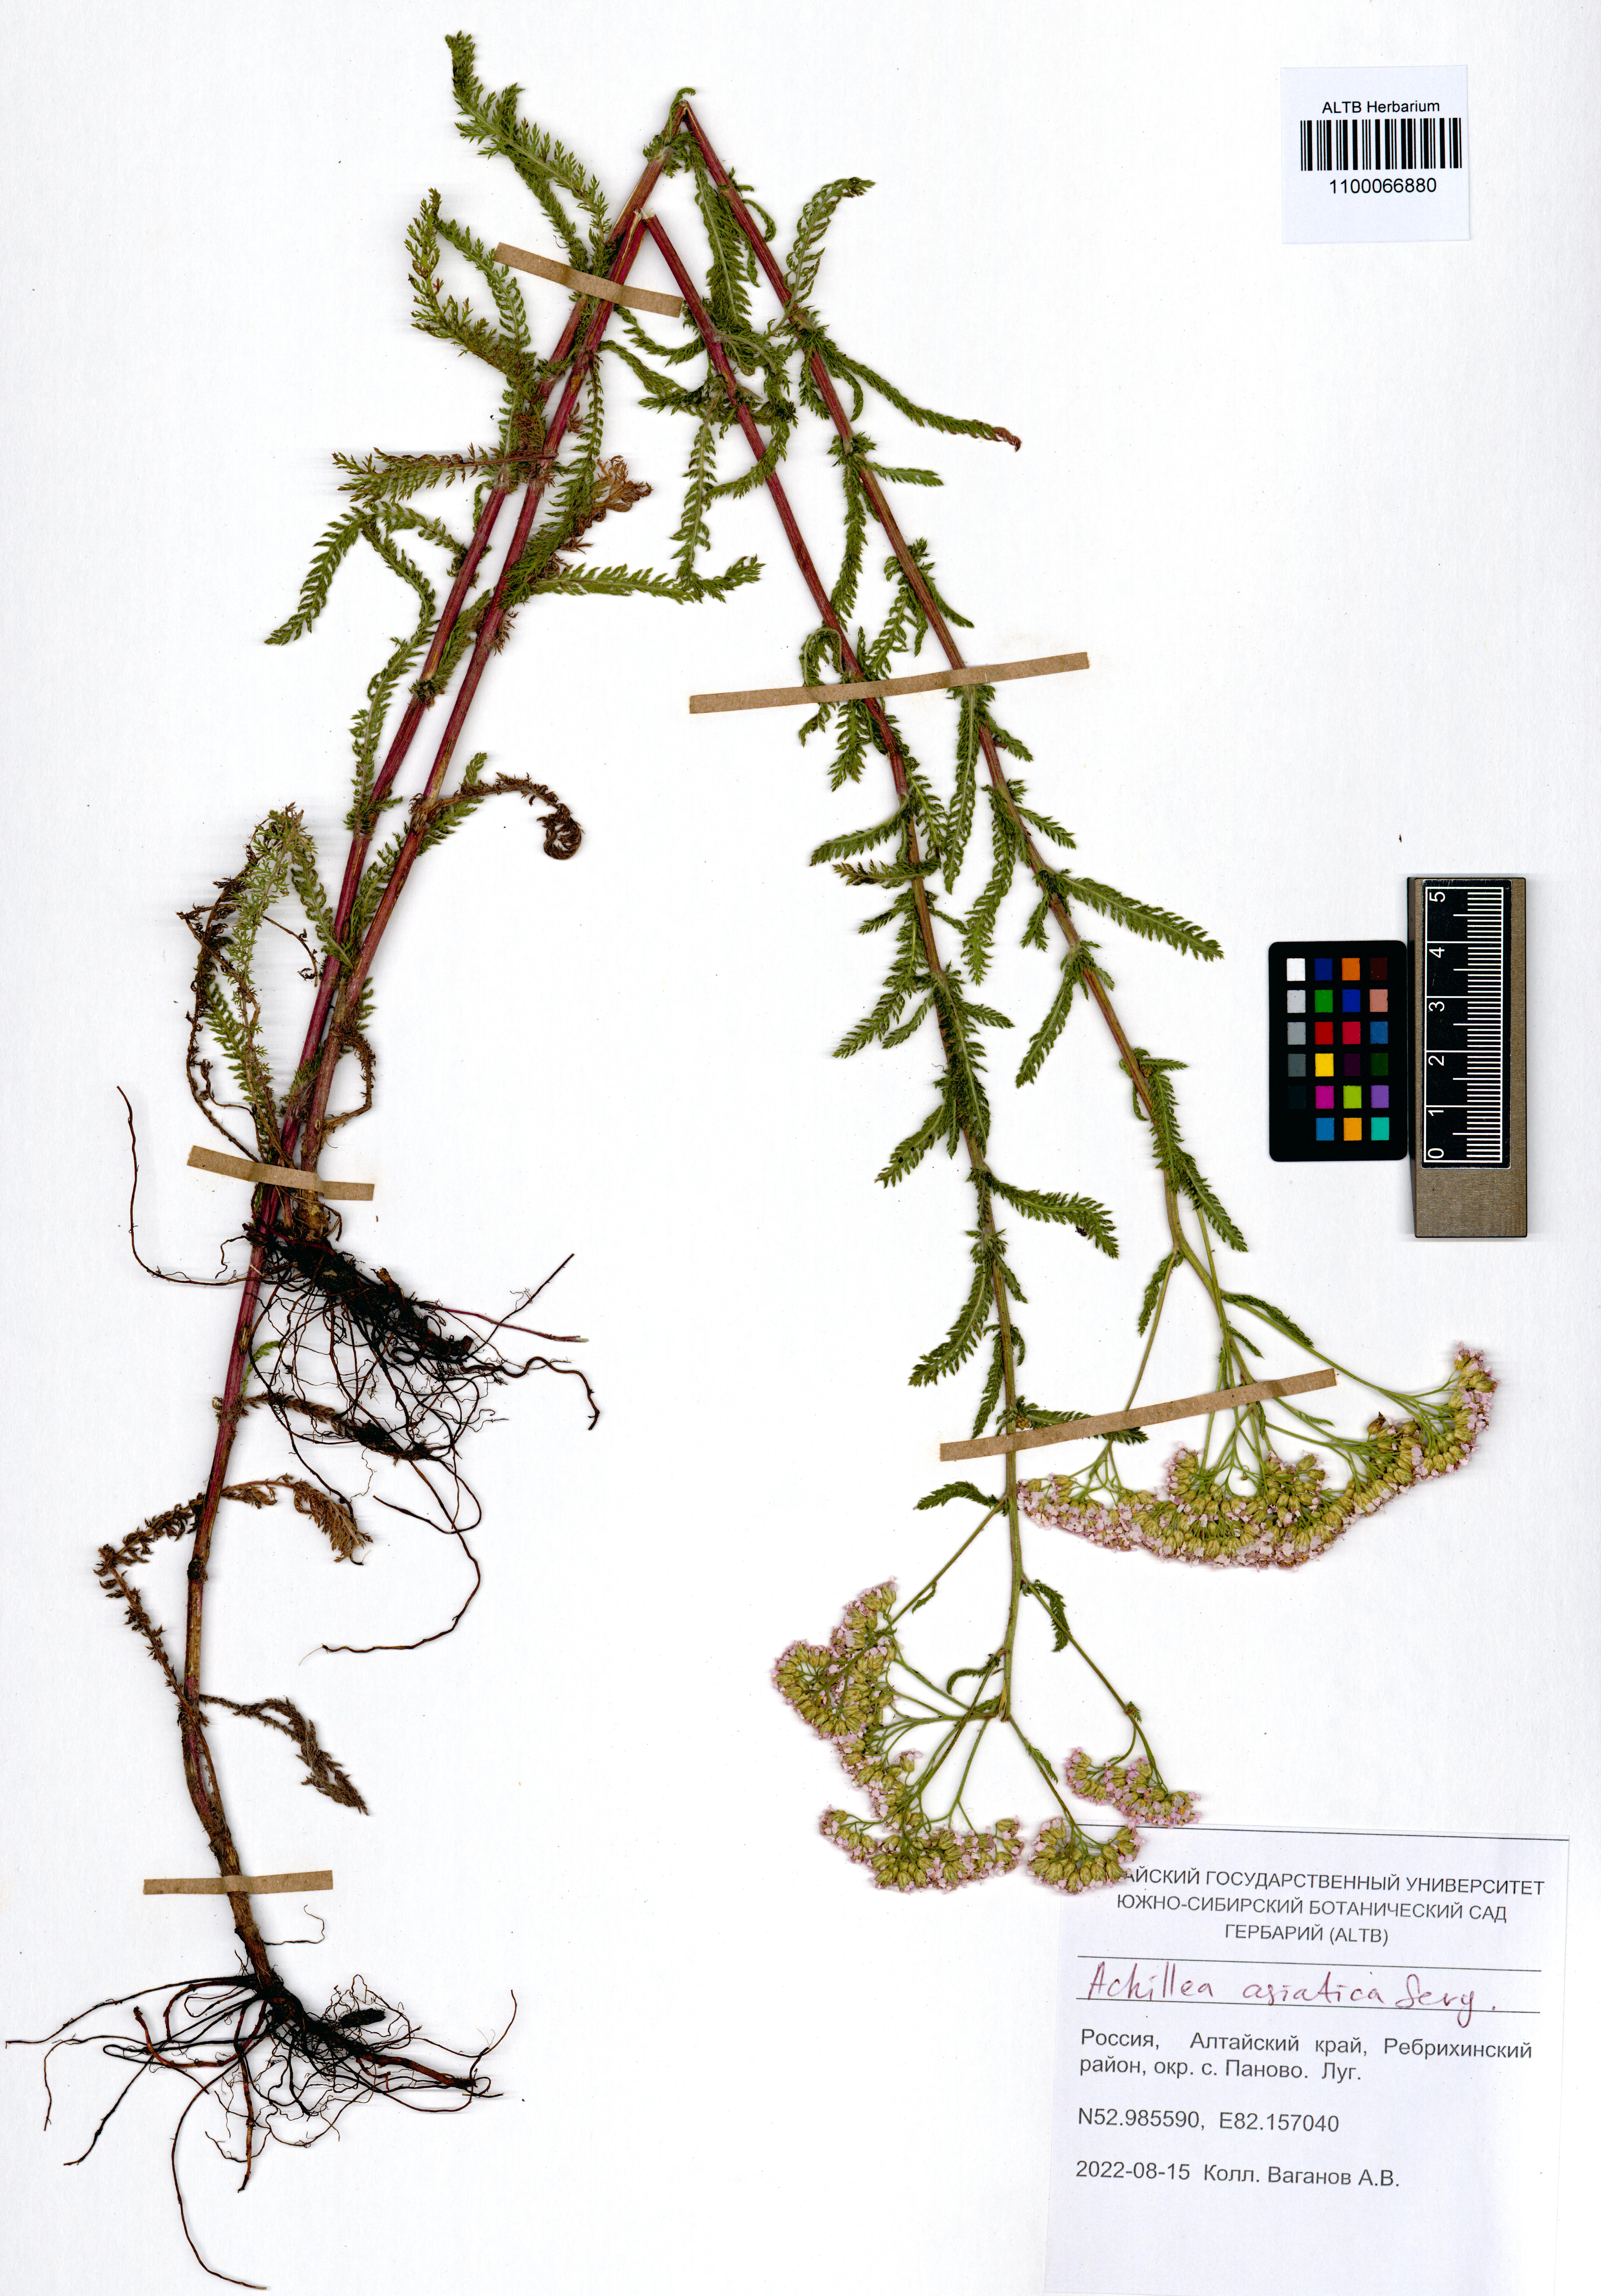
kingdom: Plantae
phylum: Tracheophyta
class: Magnoliopsida
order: Asterales
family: Asteraceae
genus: Achillea
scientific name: Achillea asiatica
